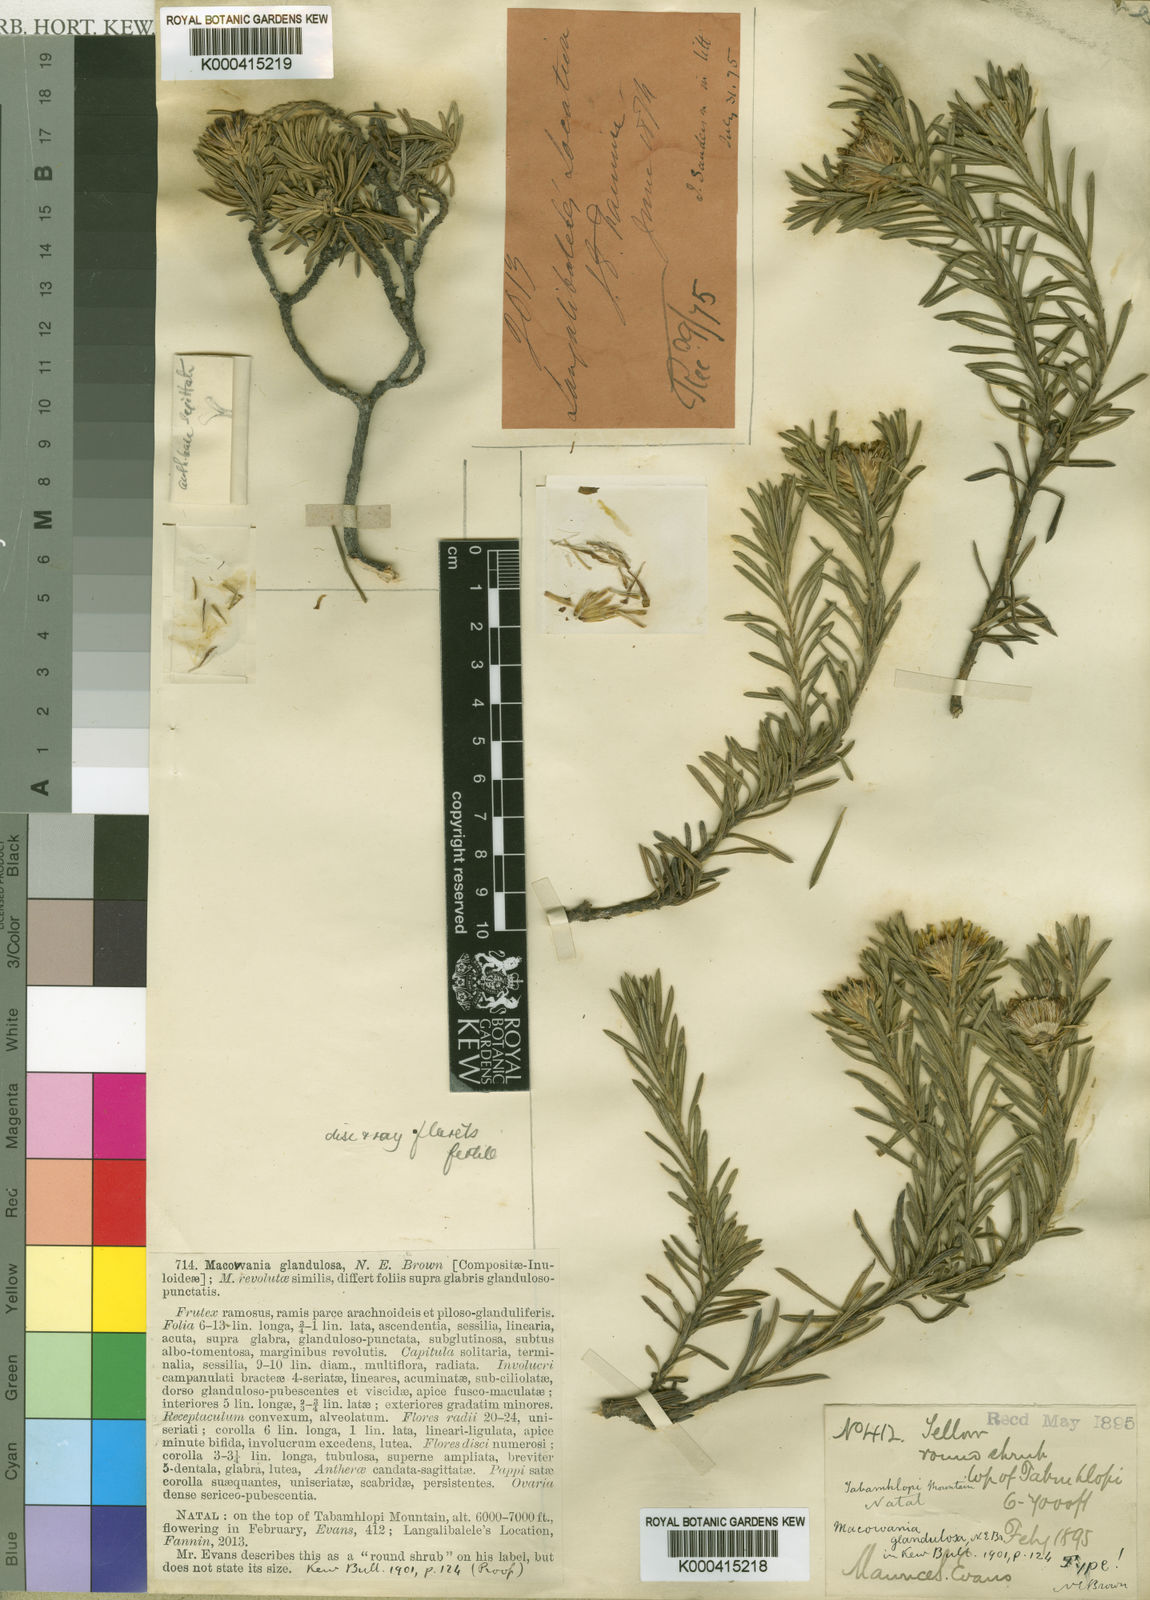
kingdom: Plantae
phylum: Tracheophyta
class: Magnoliopsida
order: Asterales
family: Asteraceae
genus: Arrowsmithia
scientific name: Arrowsmithia glandulosa
